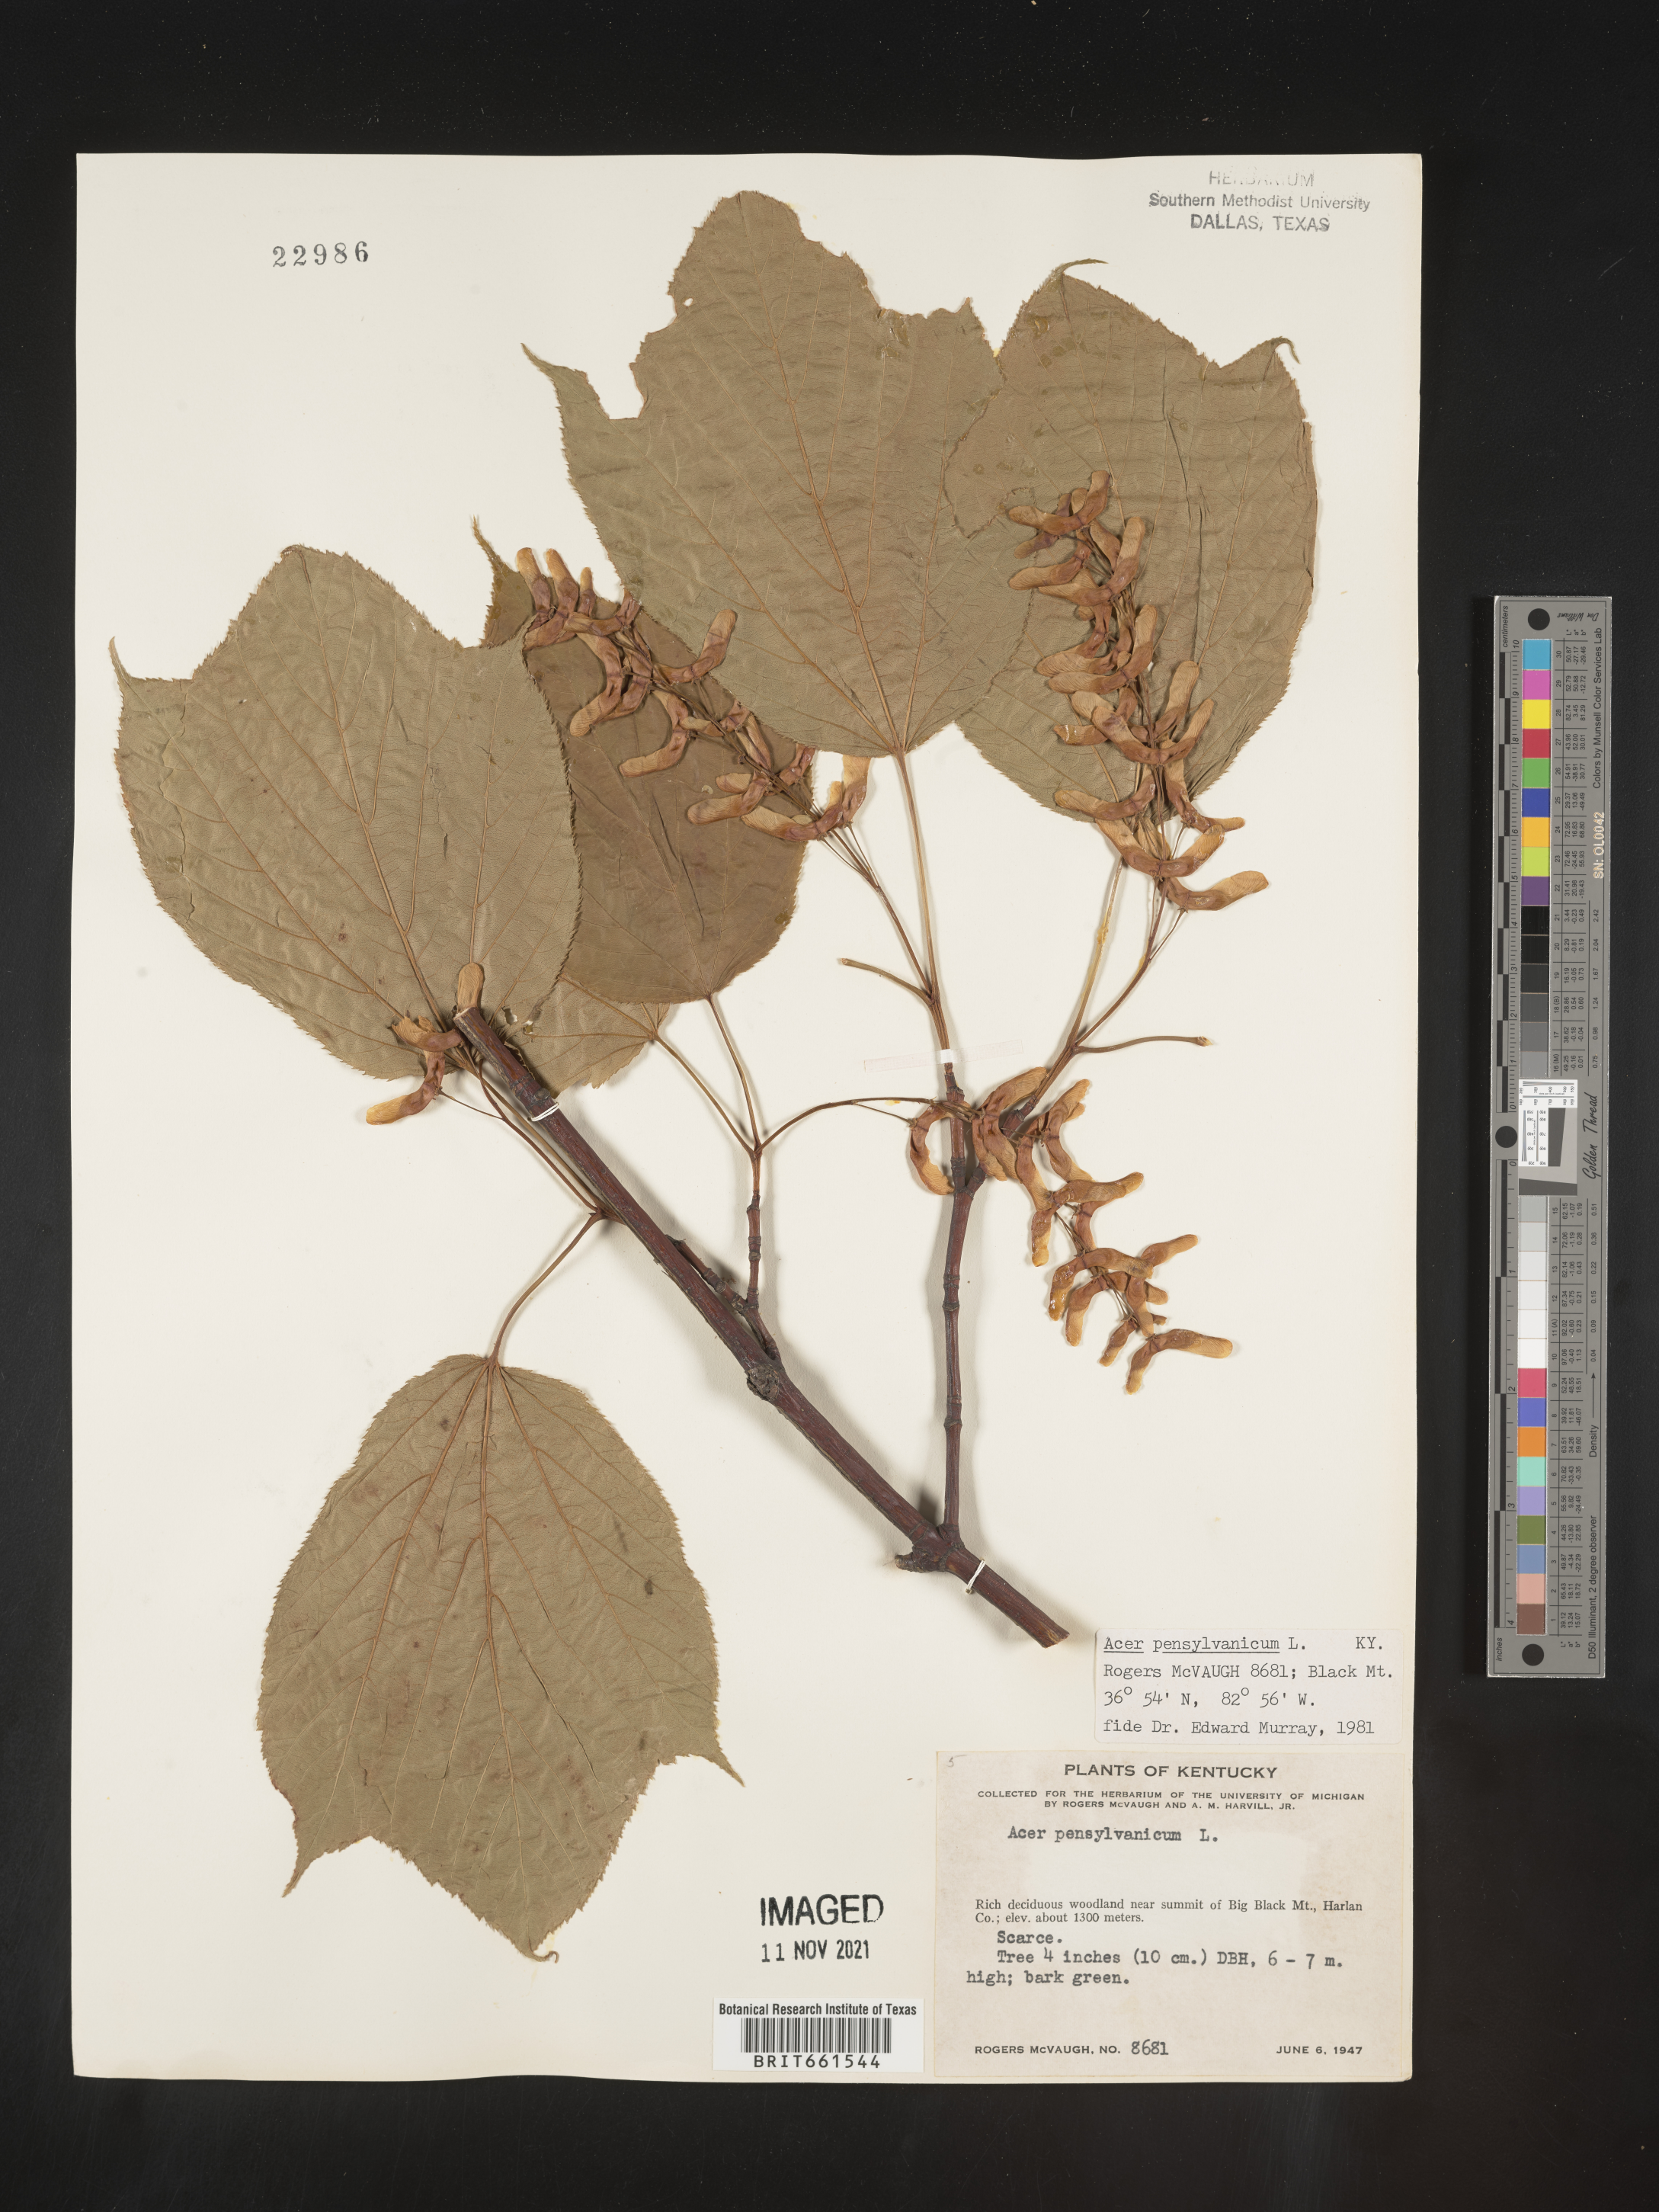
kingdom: Plantae
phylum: Tracheophyta
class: Magnoliopsida
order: Sapindales
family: Sapindaceae
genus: Acer
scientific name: Acer pensylvanicum
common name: Moosewood
